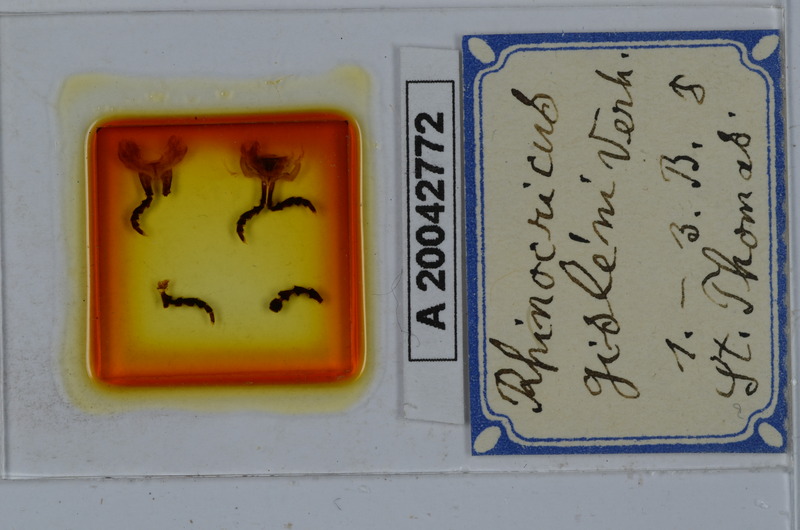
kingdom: Animalia
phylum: Arthropoda
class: Diplopoda
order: Spirobolida
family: Rhinocricidae
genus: Anadenobolus
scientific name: Anadenobolus gisleni
